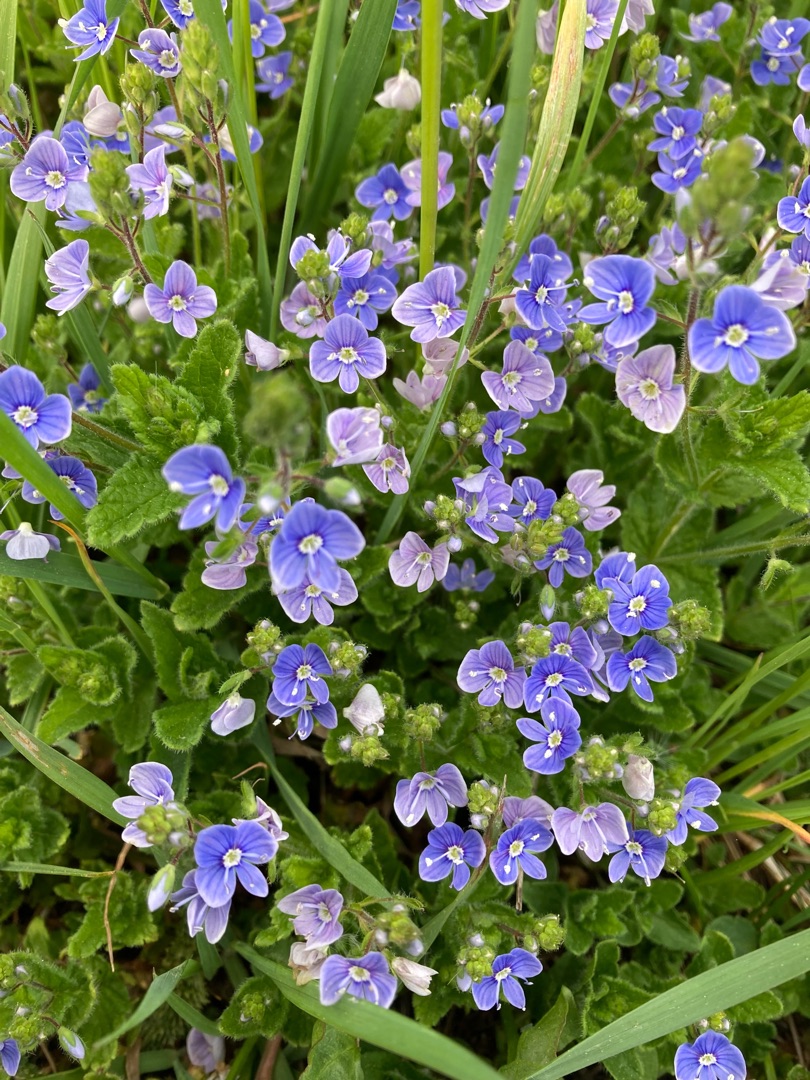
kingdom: Plantae
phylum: Tracheophyta
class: Magnoliopsida
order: Lamiales
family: Plantaginaceae
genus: Veronica
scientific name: Veronica chamaedrys
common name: Tveskægget ærenpris
